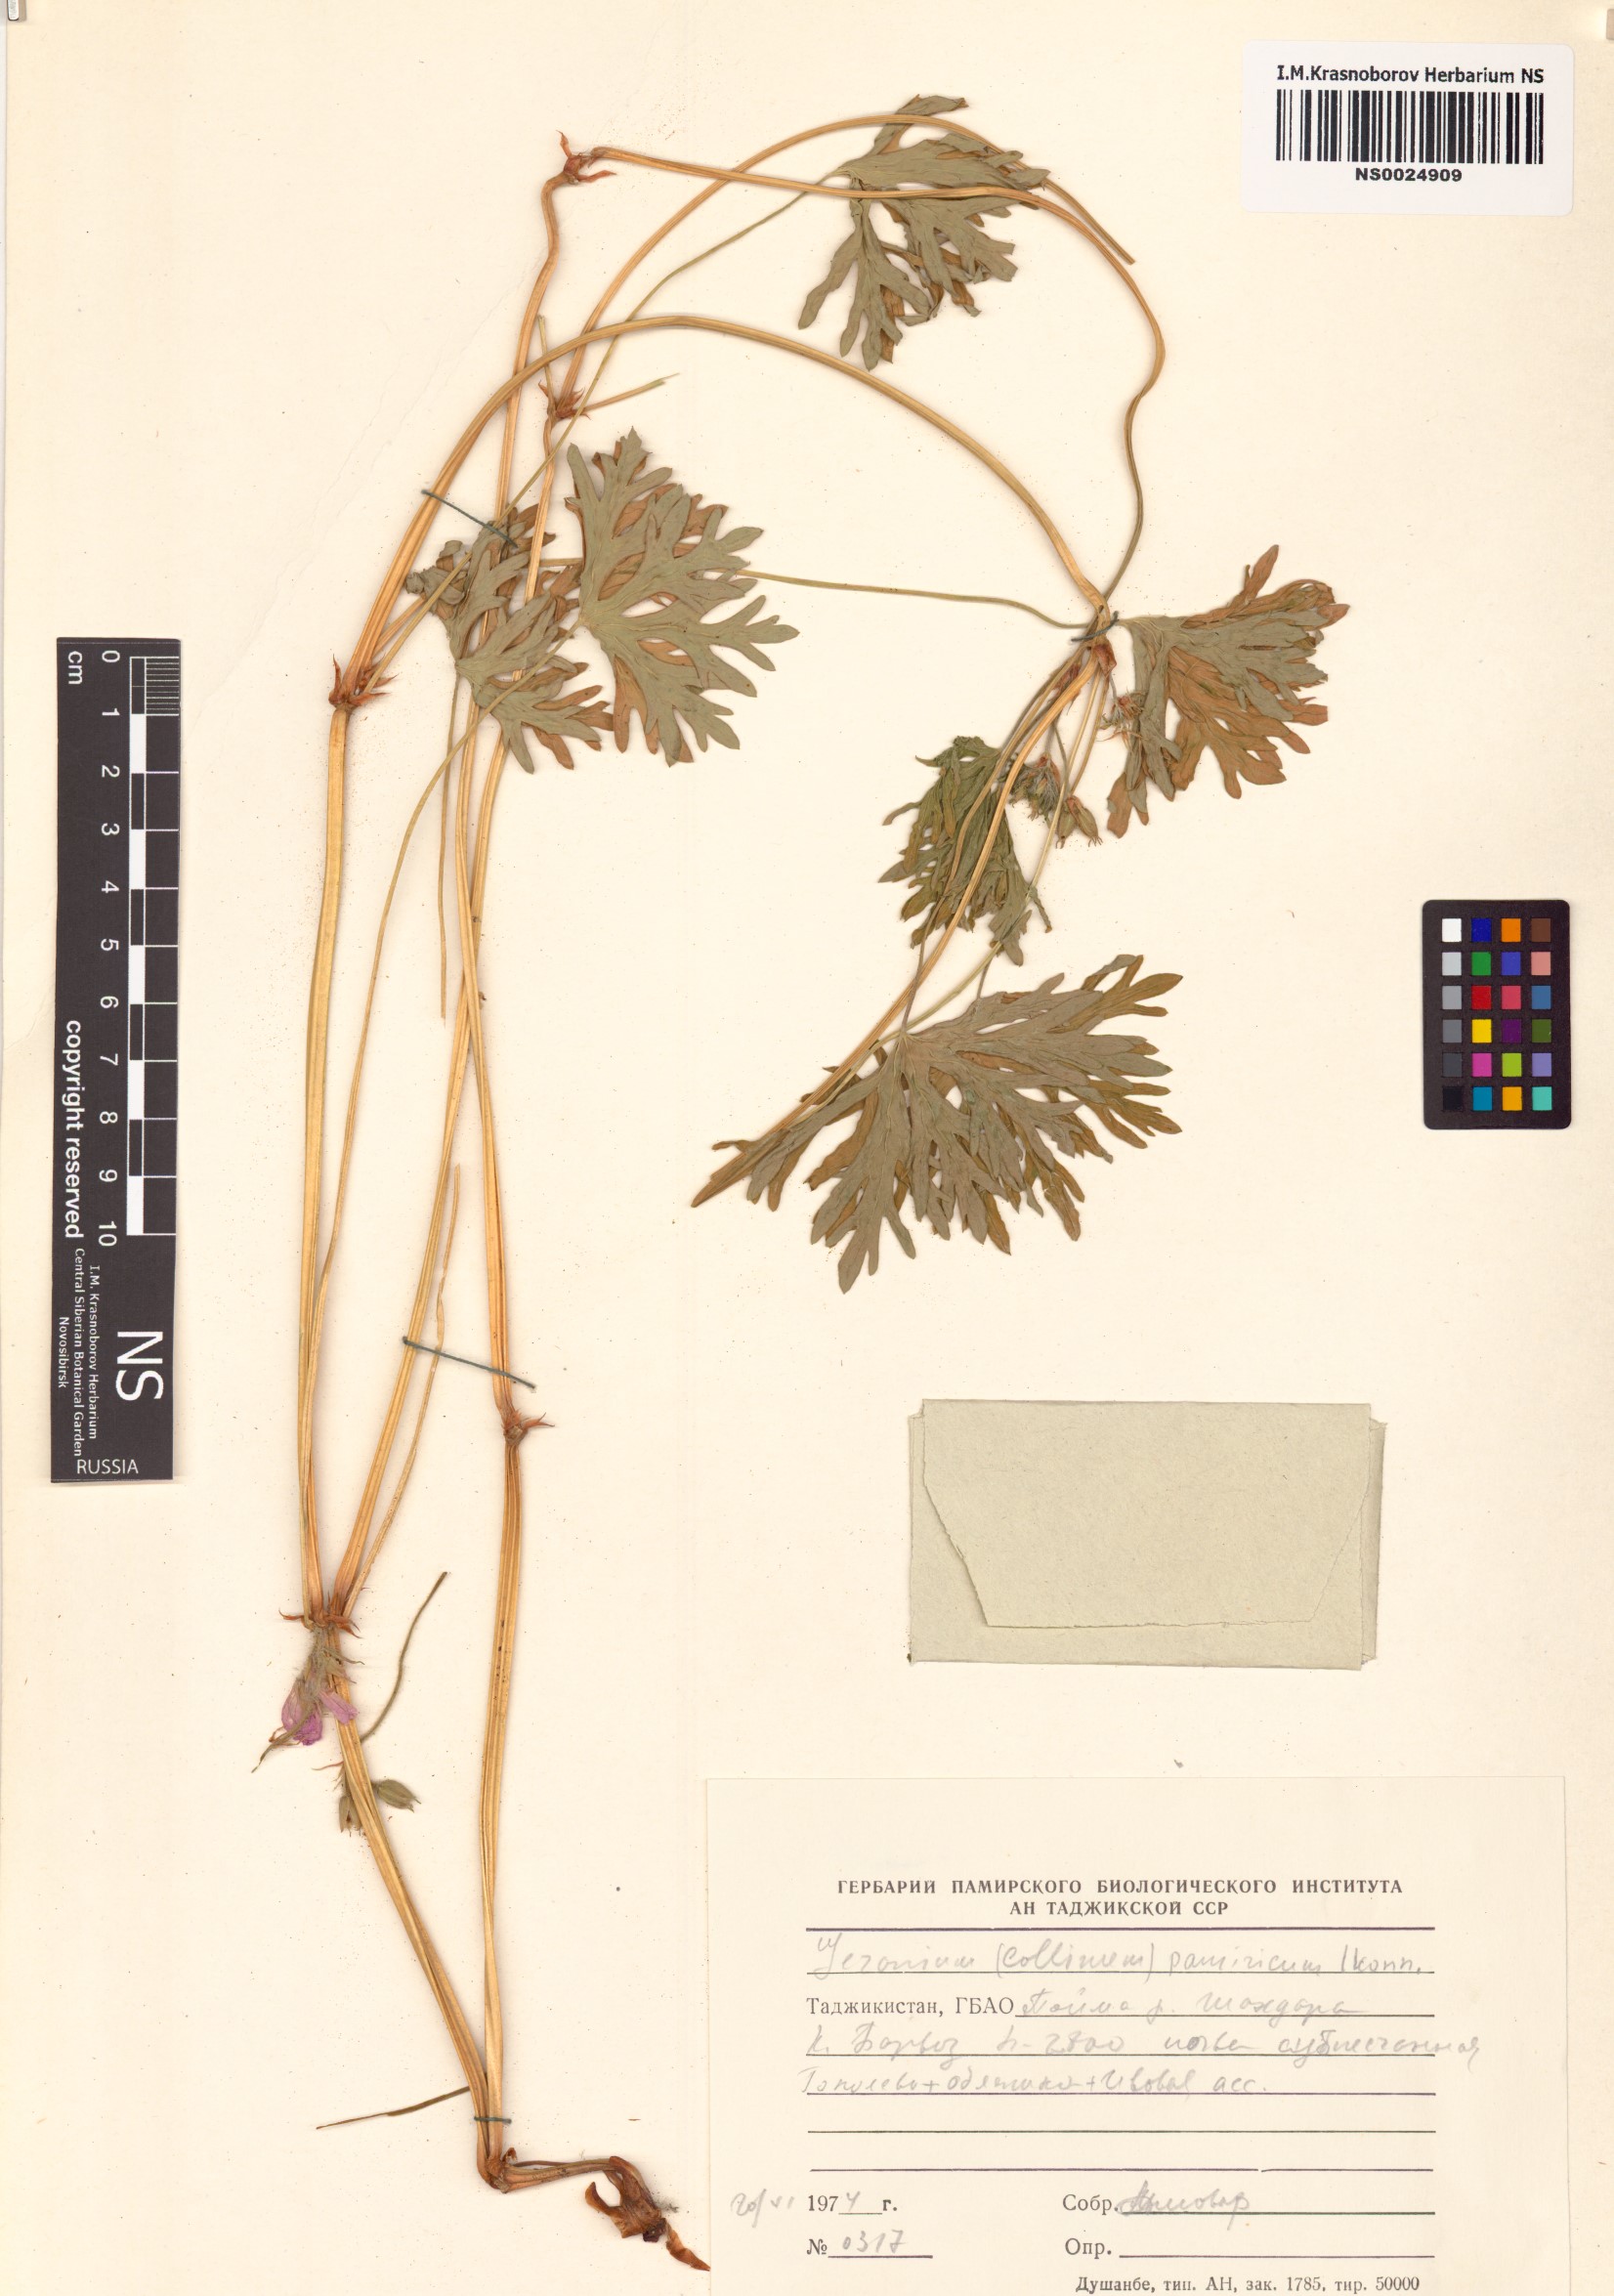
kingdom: Plantae
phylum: Tracheophyta
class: Magnoliopsida
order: Geraniales
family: Geraniaceae
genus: Geranium
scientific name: Geranium collinum
